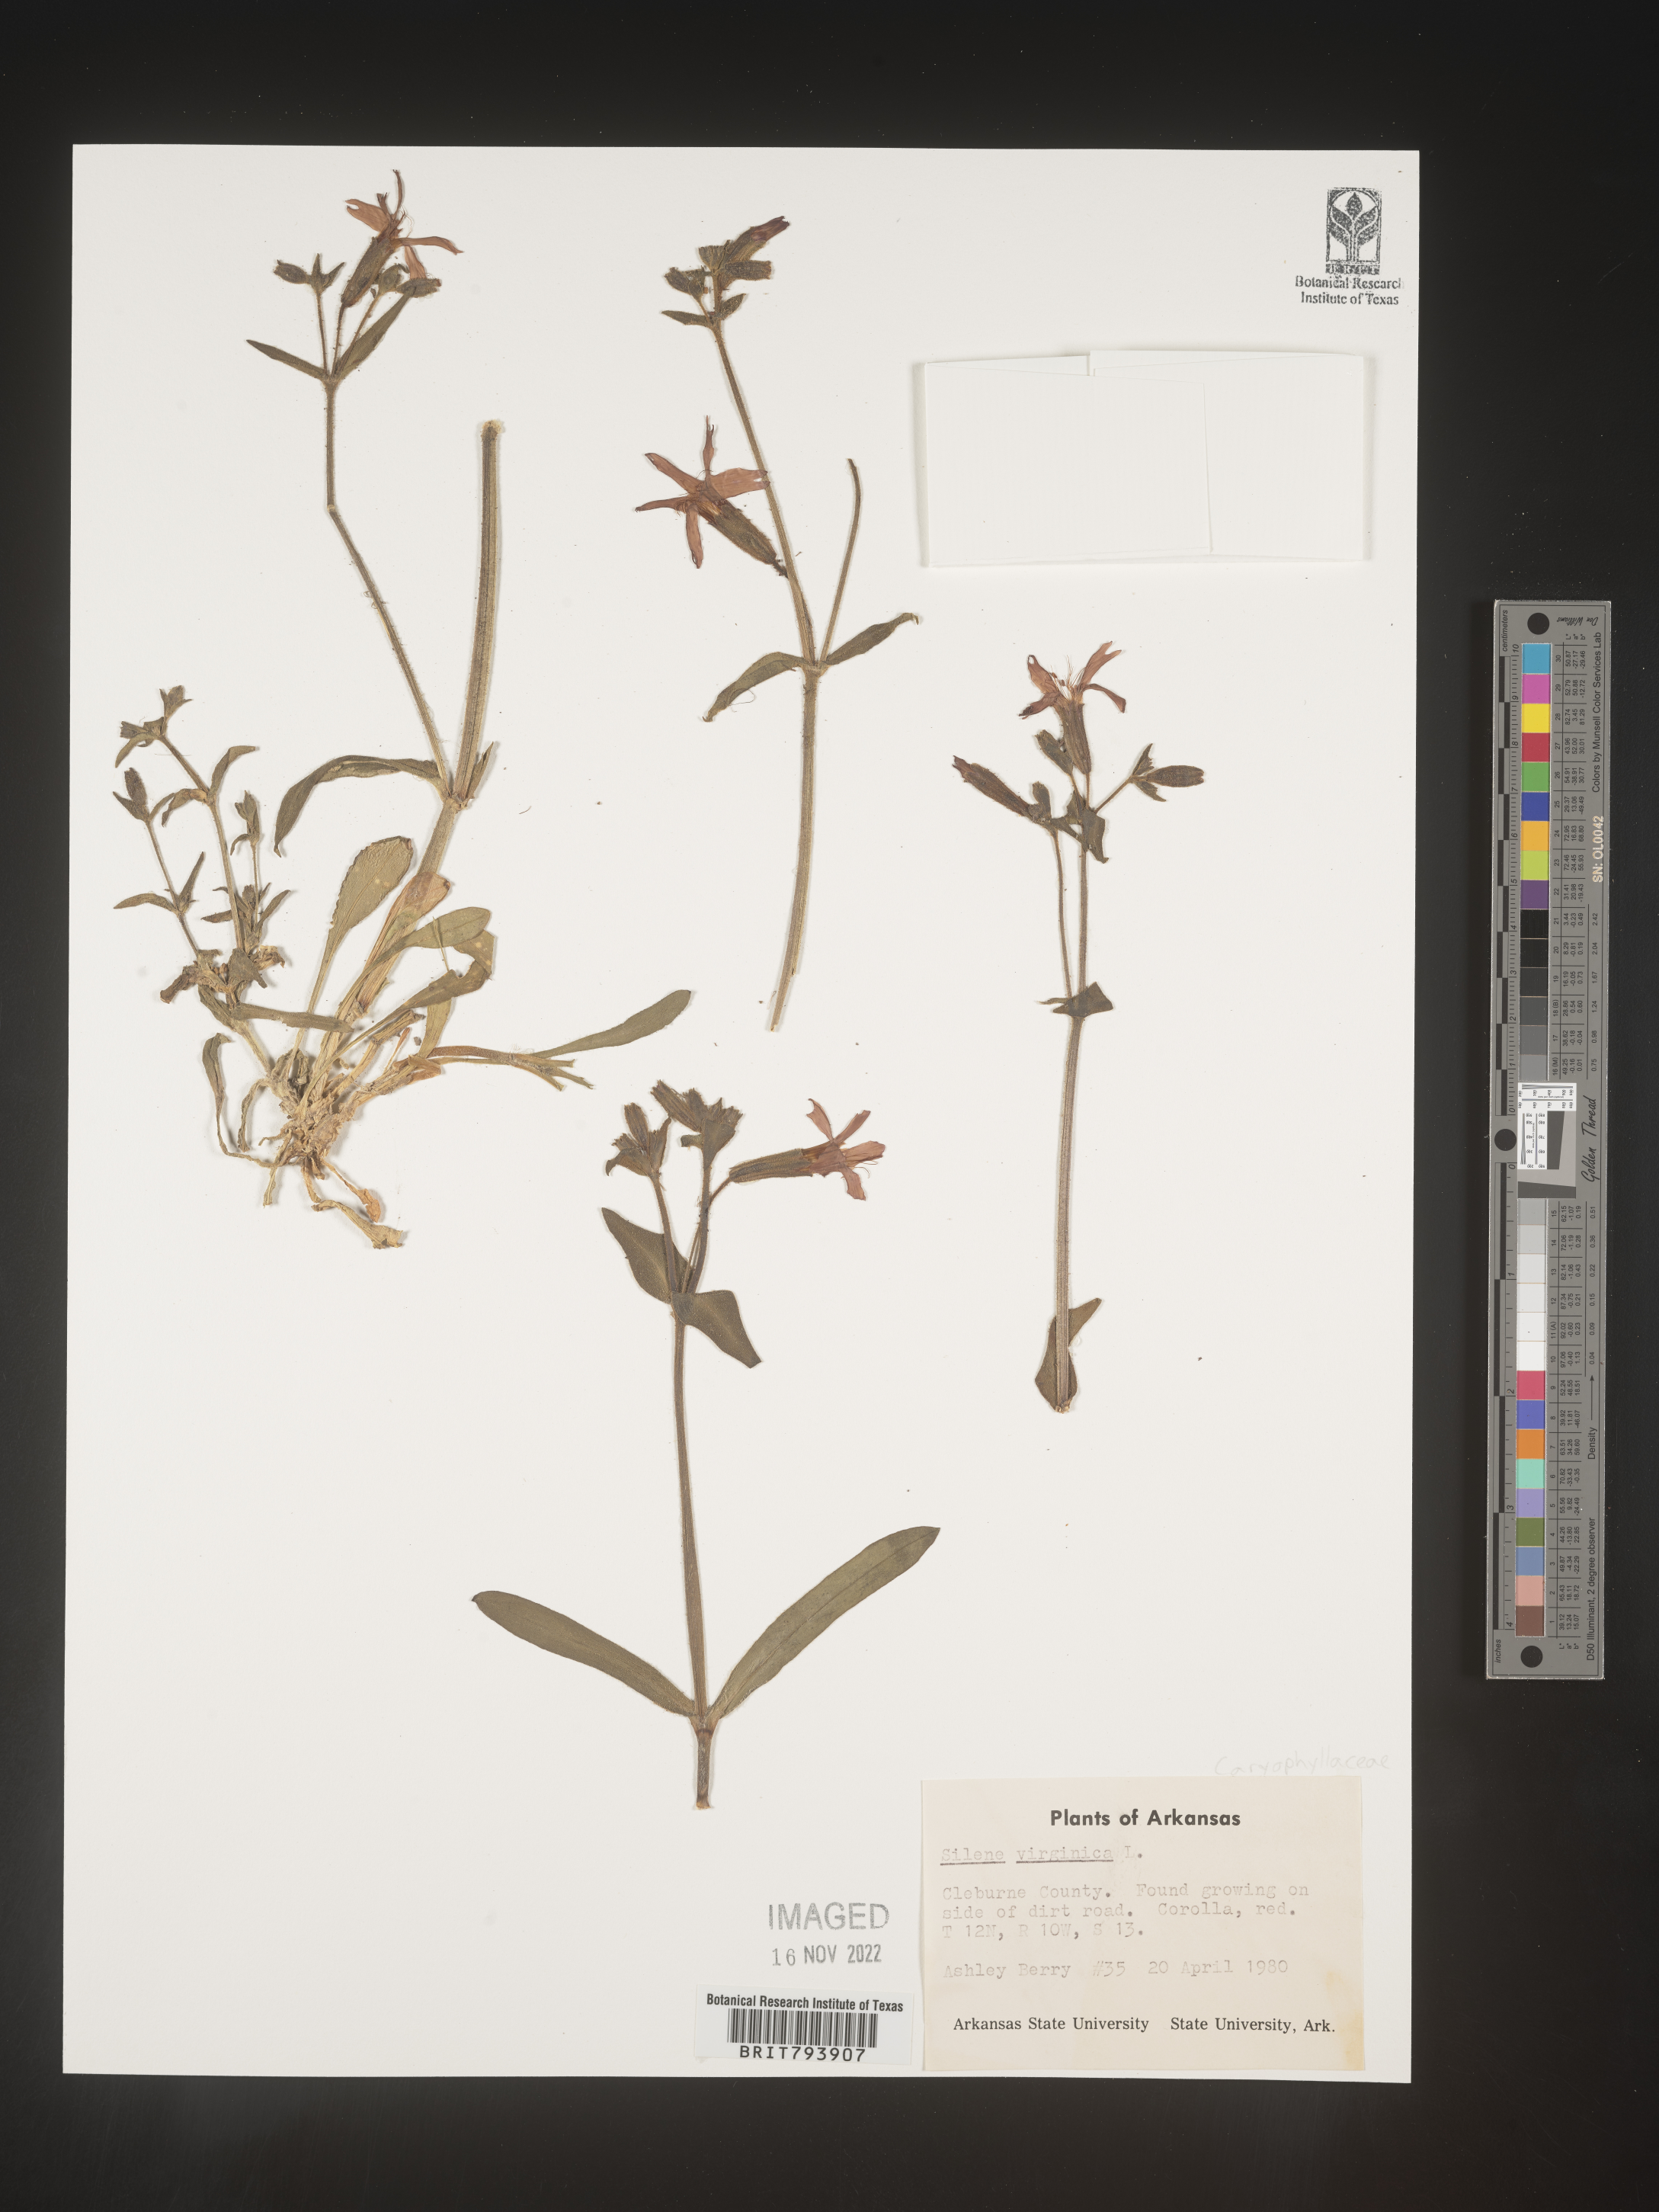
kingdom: Plantae
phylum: Tracheophyta
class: Magnoliopsida
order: Caryophyllales
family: Caryophyllaceae
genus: Silene
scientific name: Silene virginica
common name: Fire-pink
